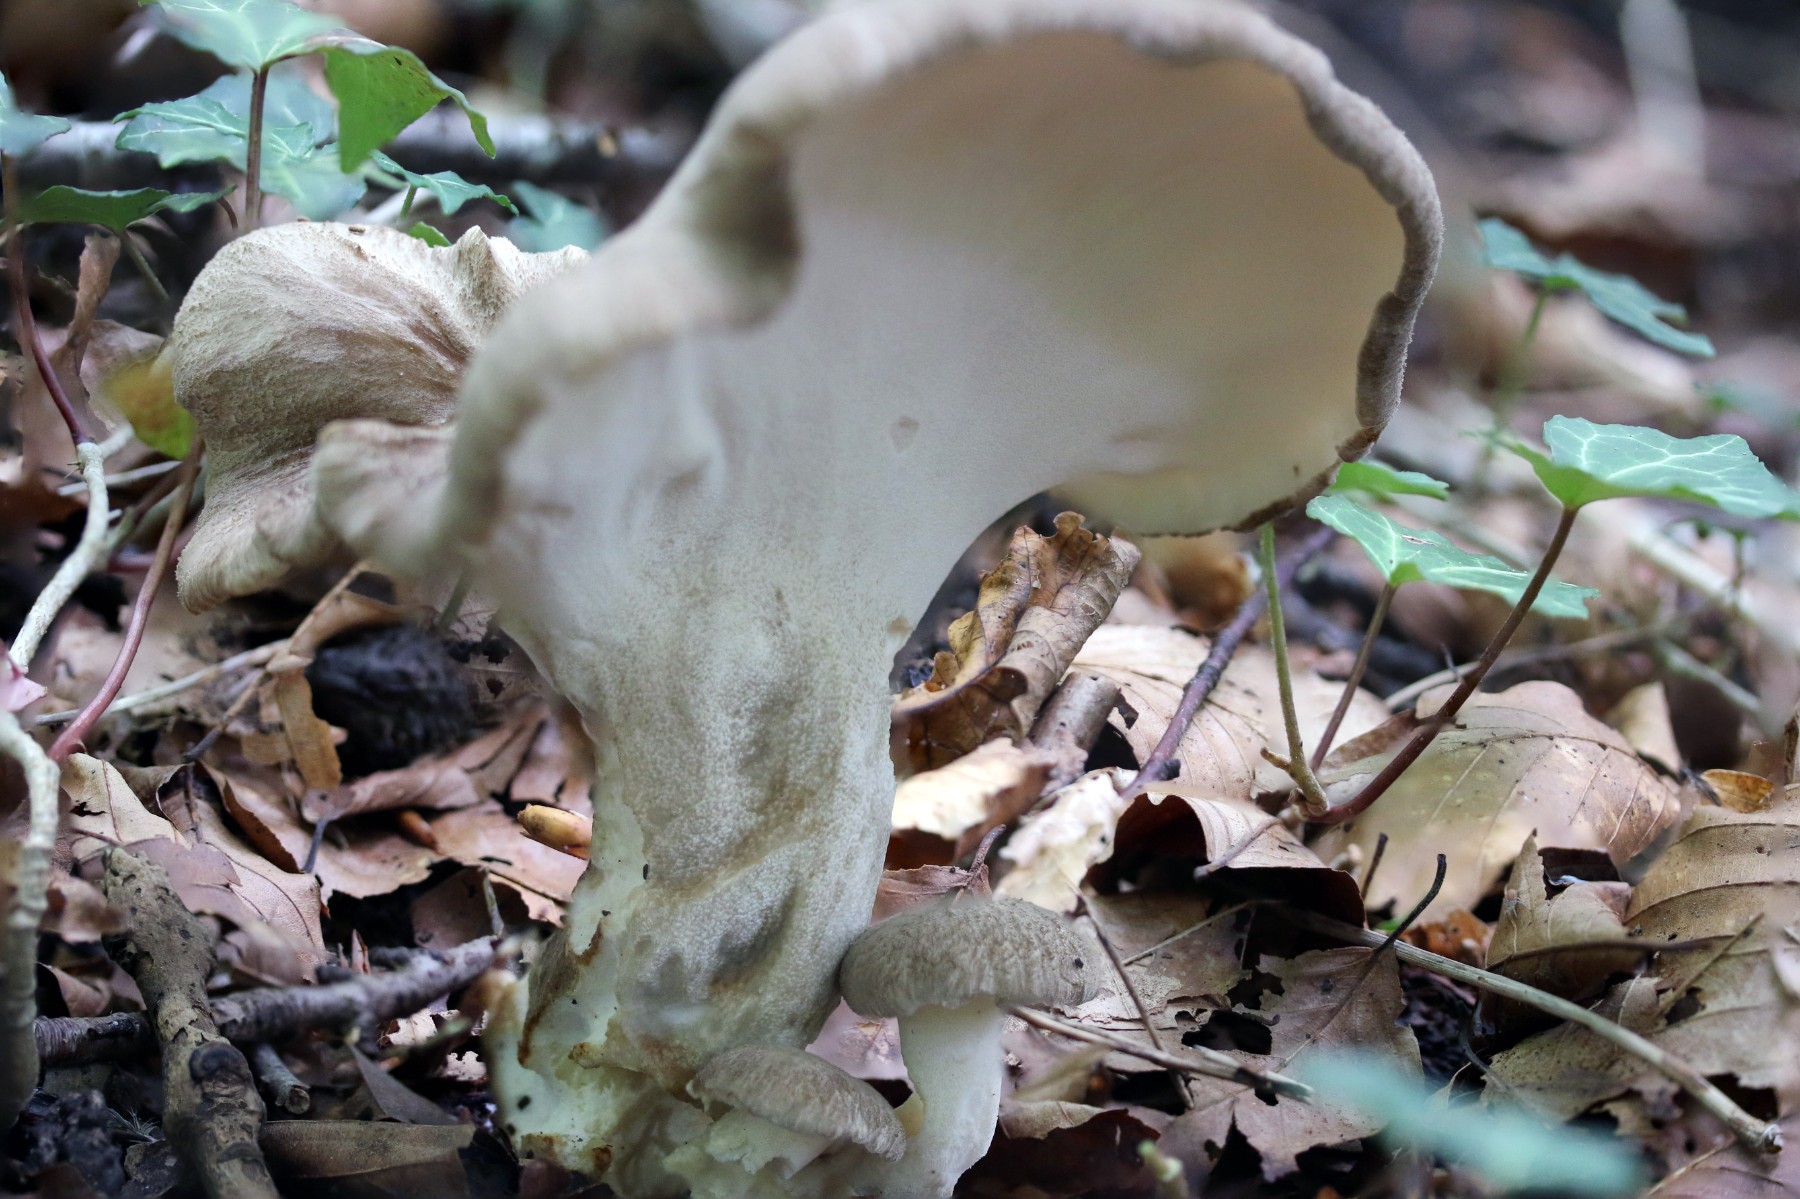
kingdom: Fungi
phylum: Basidiomycota
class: Agaricomycetes
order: Polyporales
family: Polyporaceae
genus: Picipes
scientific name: Picipes melanopus
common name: sortfodet stilkporesvamp
